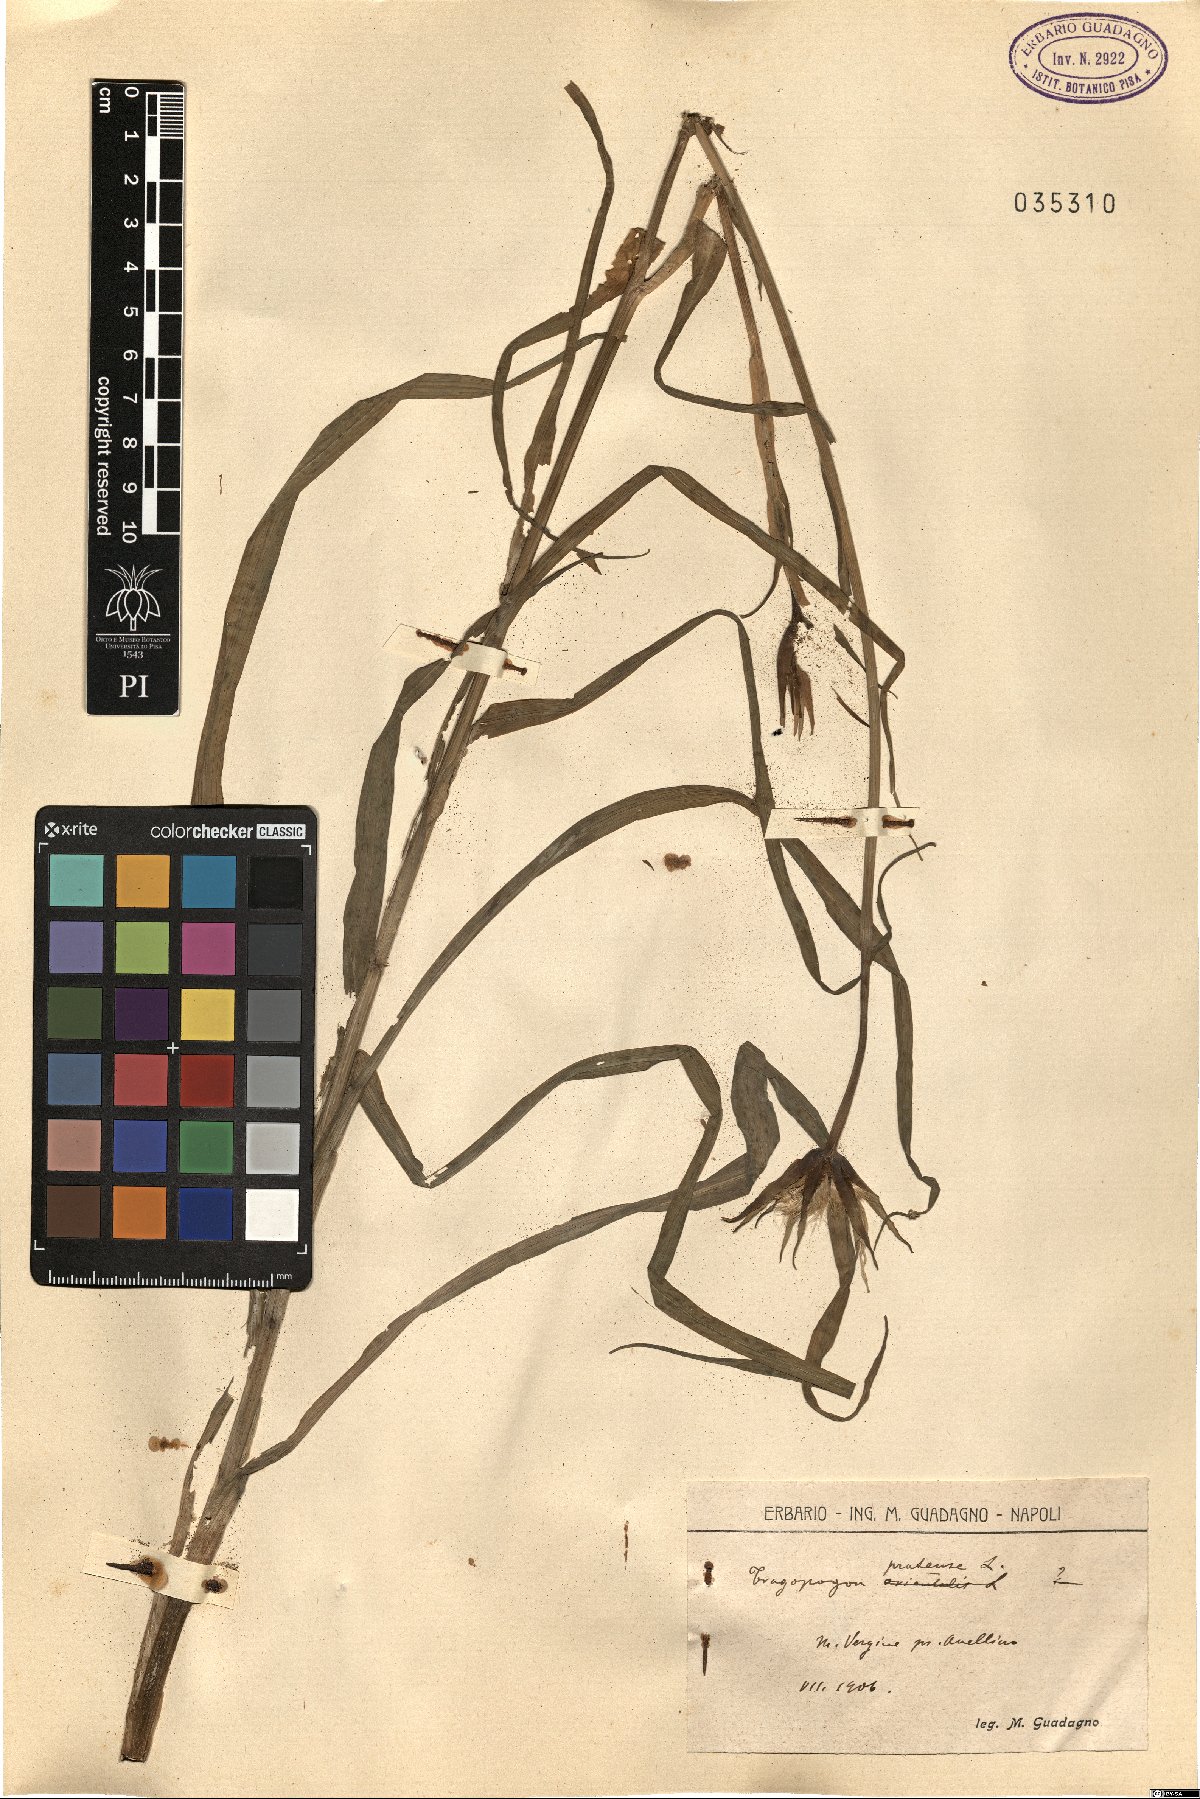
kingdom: Plantae
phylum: Tracheophyta
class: Magnoliopsida
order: Asterales
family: Asteraceae
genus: Tragopogon
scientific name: Tragopogon pratensis
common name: Goat's-beard
